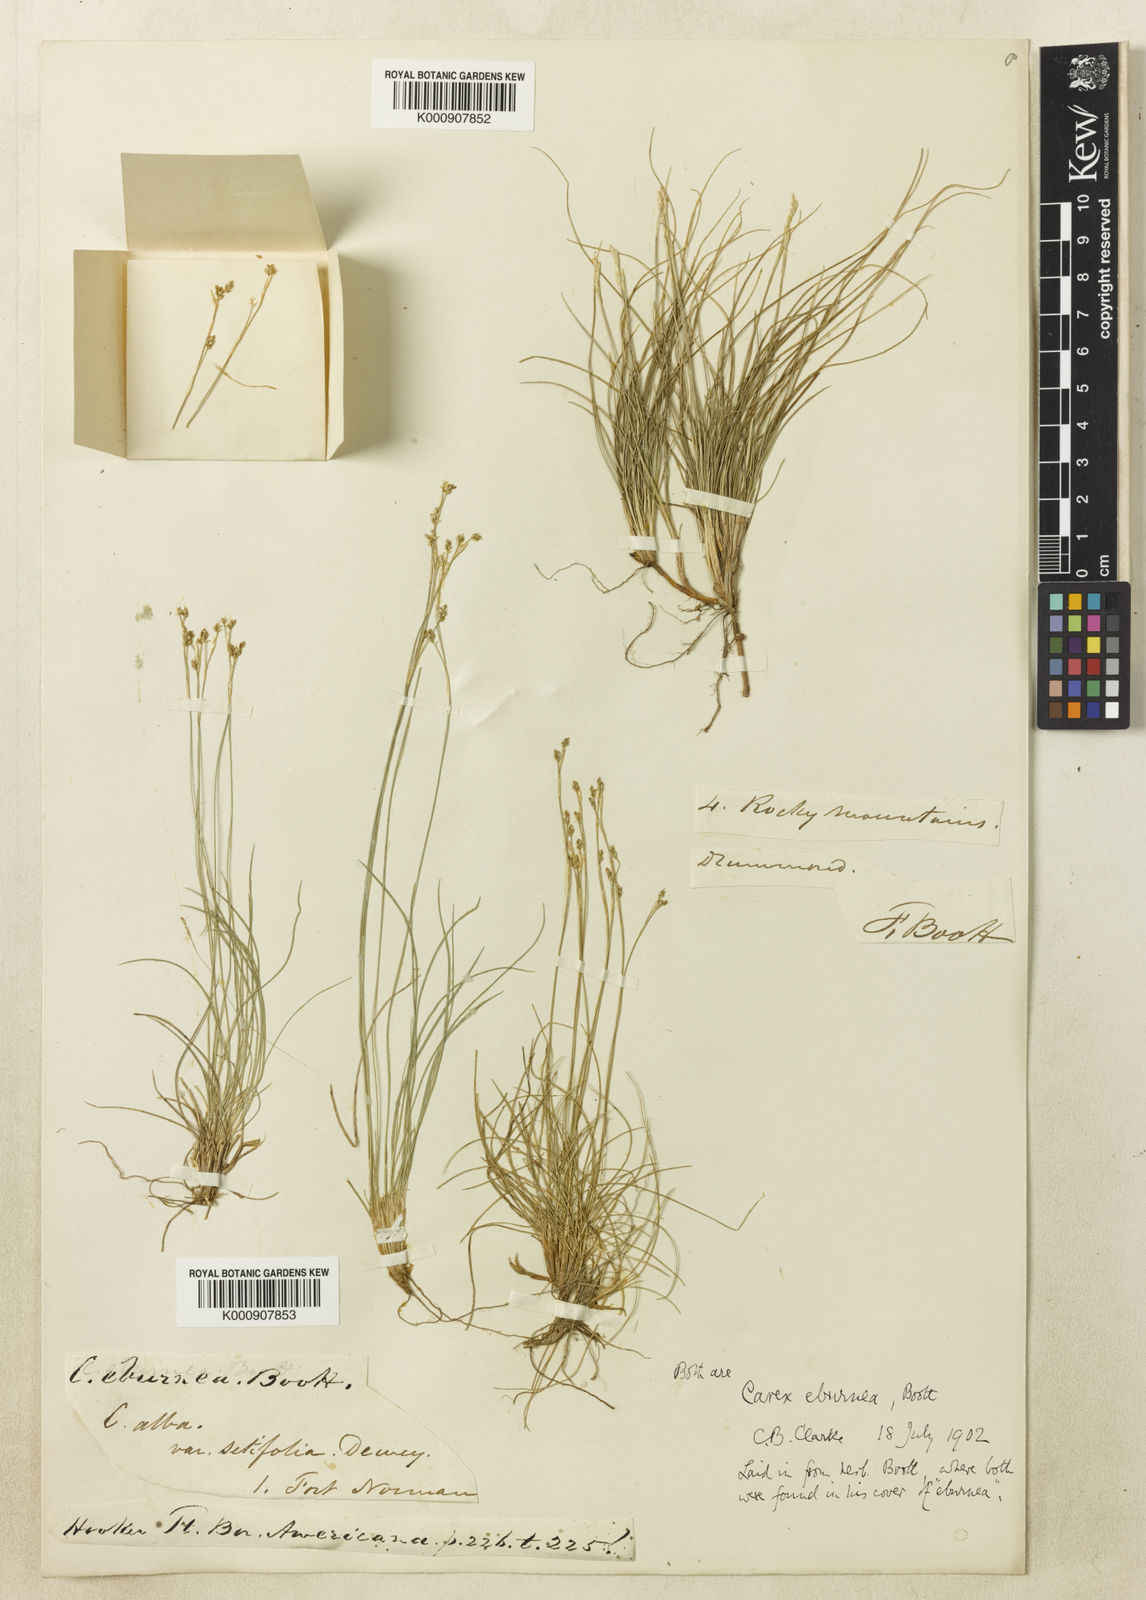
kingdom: Plantae
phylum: Tracheophyta
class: Liliopsida
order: Poales
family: Cyperaceae
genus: Carex
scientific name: Carex eburnea
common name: Bristle-leaved sedge
